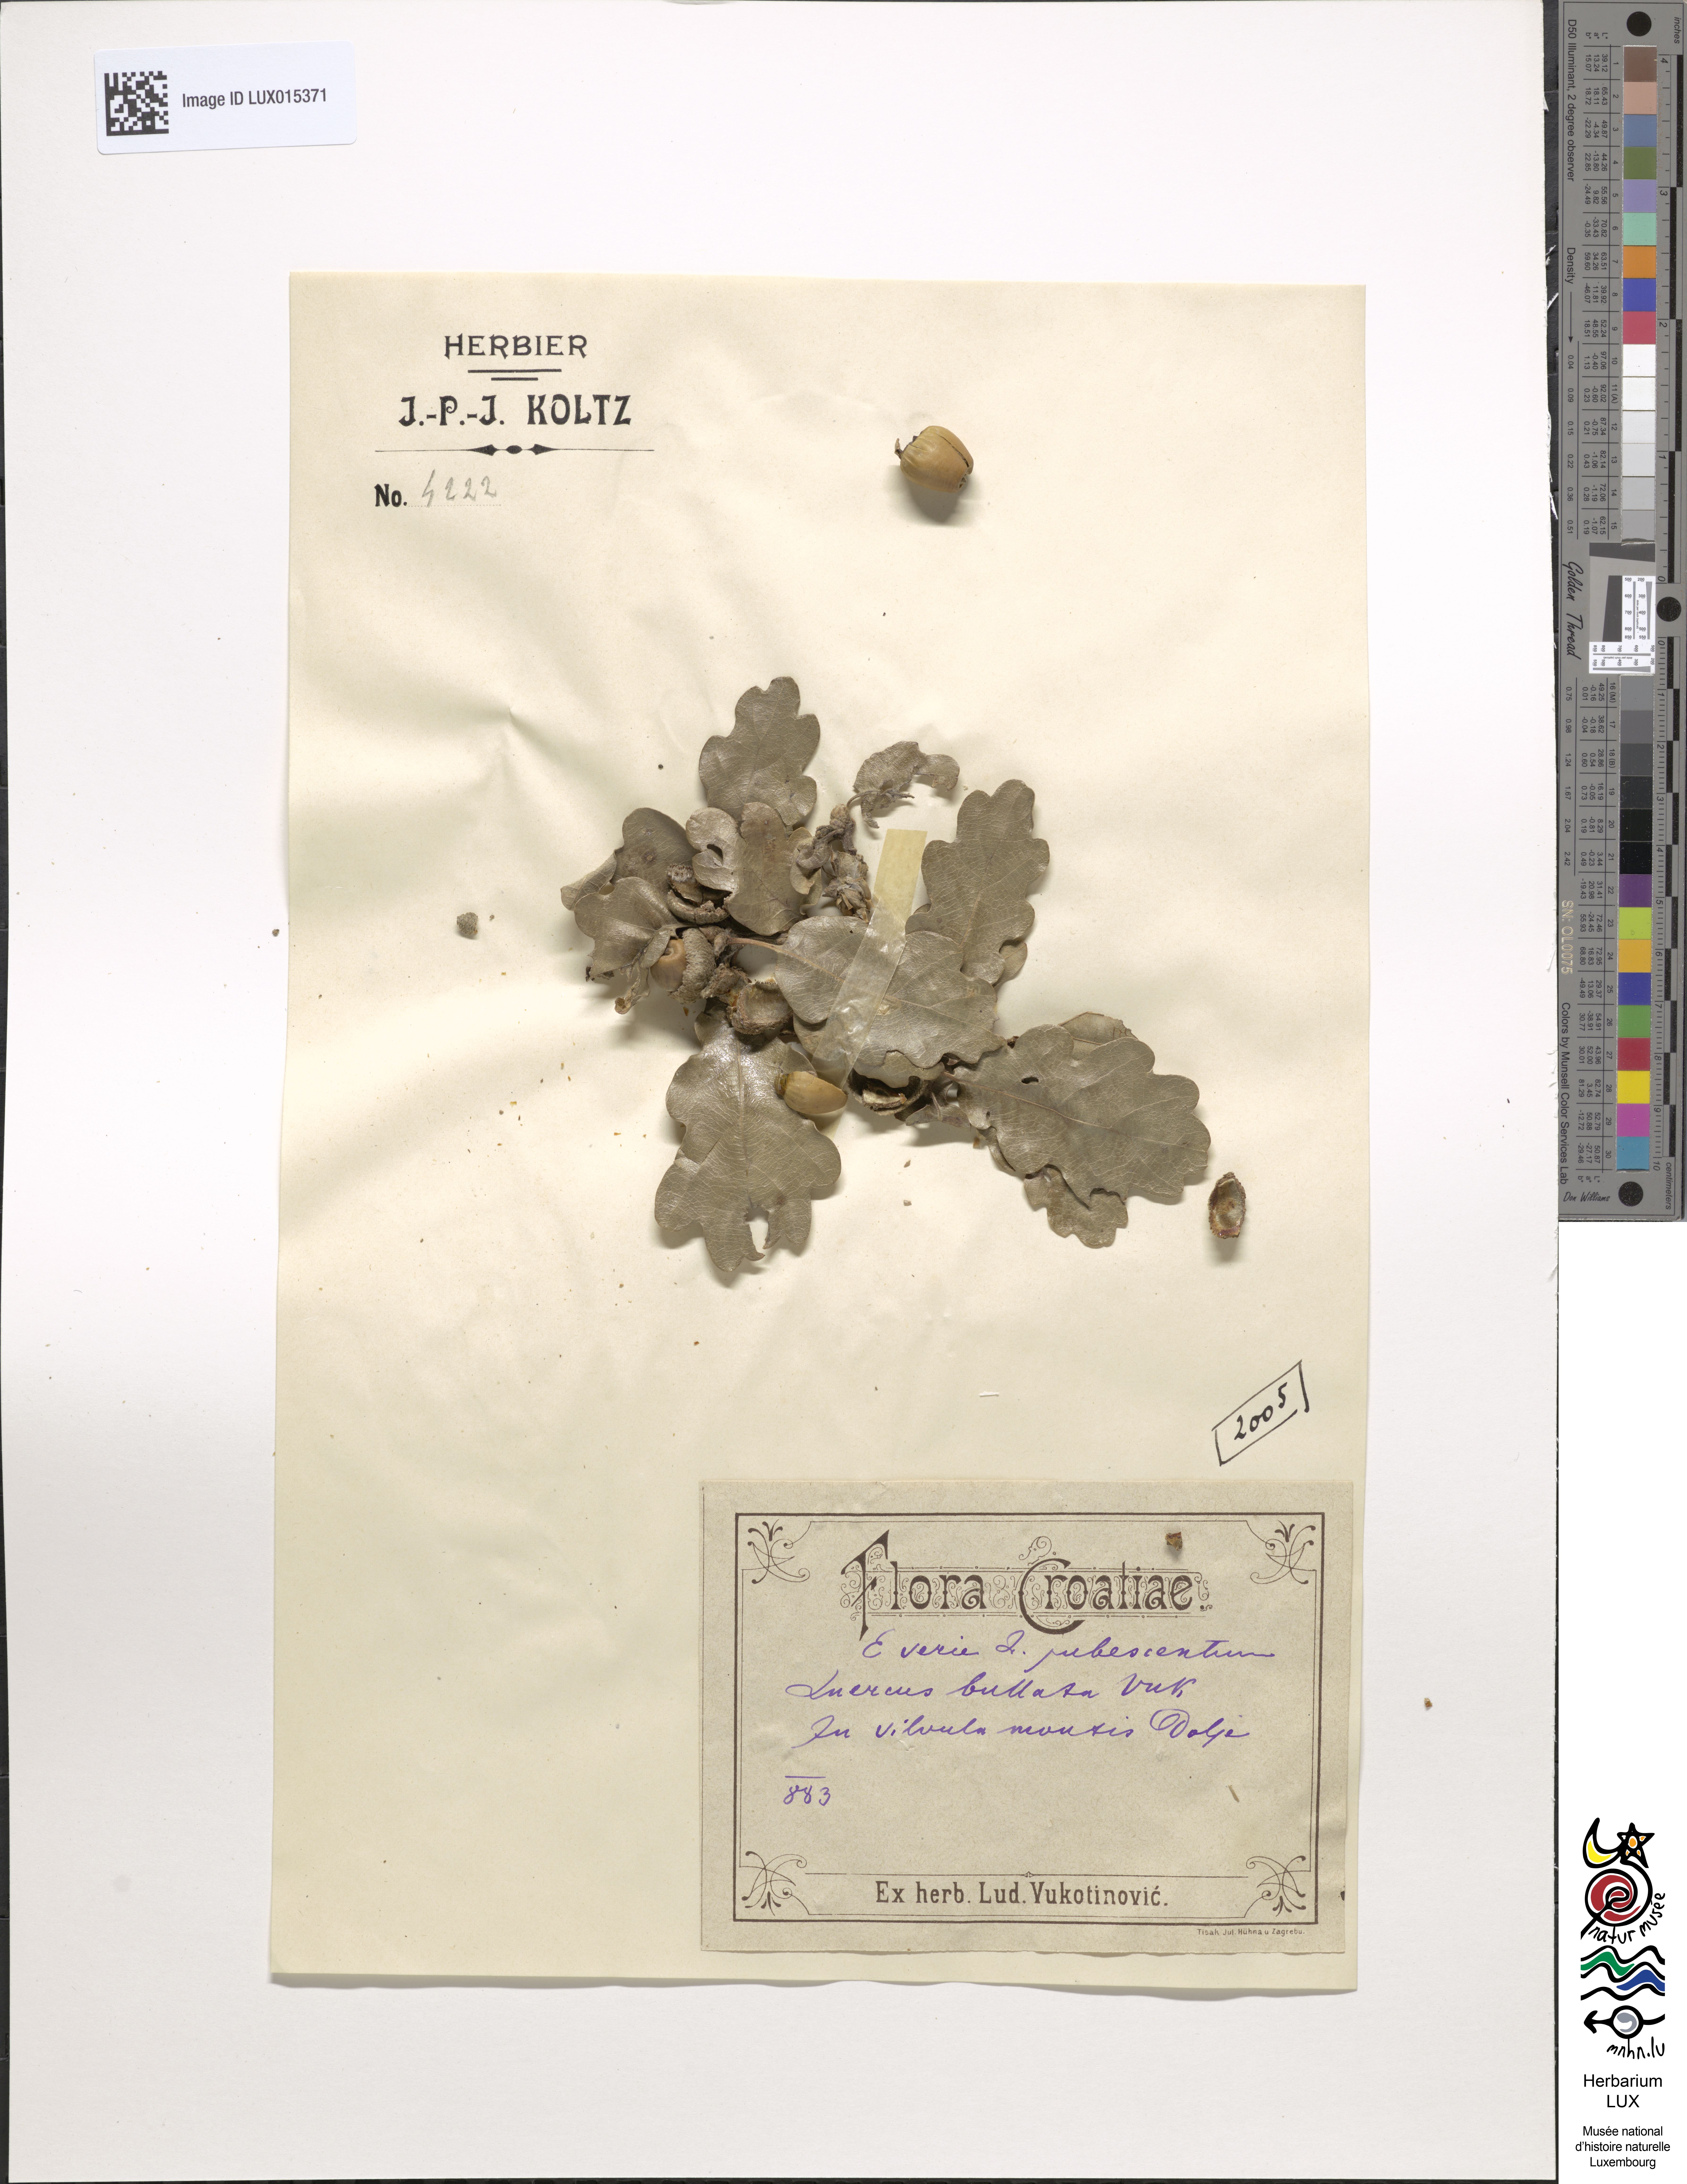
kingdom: Plantae
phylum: Tracheophyta
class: Magnoliopsida
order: Fagales
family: Fagaceae
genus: Quercus
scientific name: Quercus pubescens
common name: Downy oak
